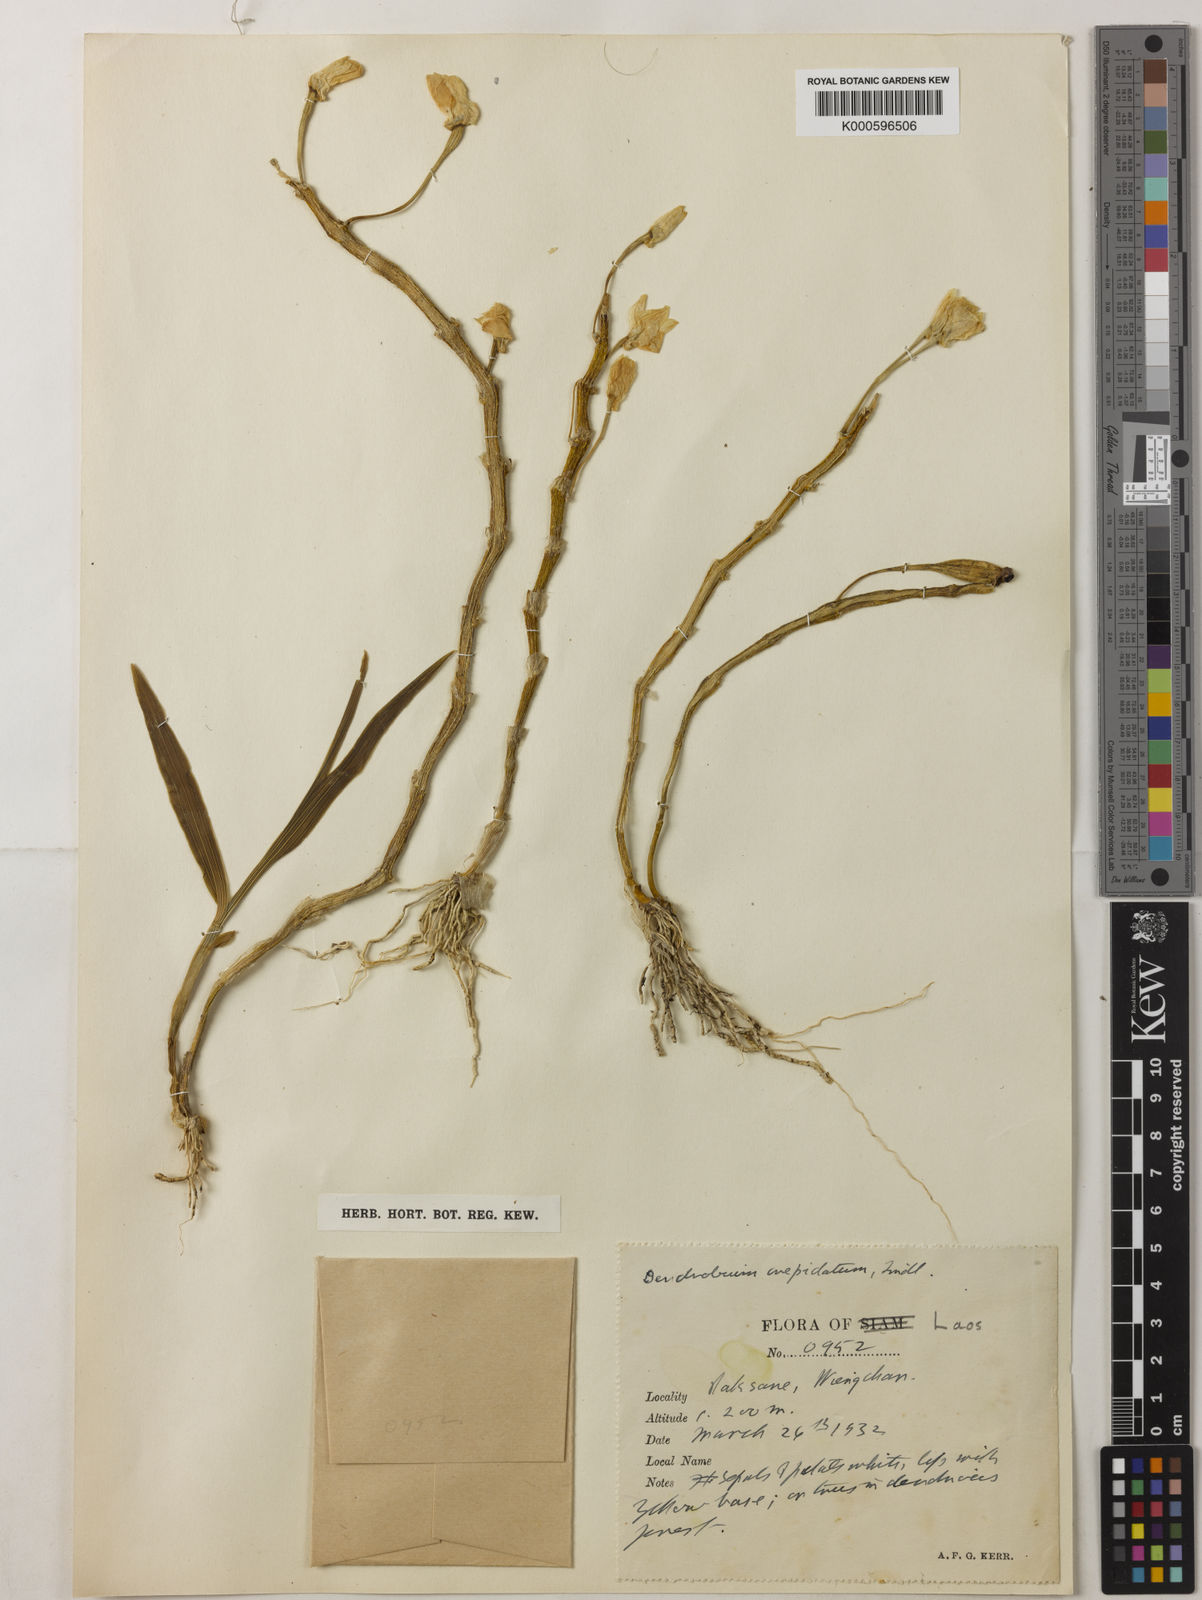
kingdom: Plantae
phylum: Tracheophyta
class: Liliopsida
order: Asparagales
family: Orchidaceae
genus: Dendrobium
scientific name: Dendrobium crepidatum
